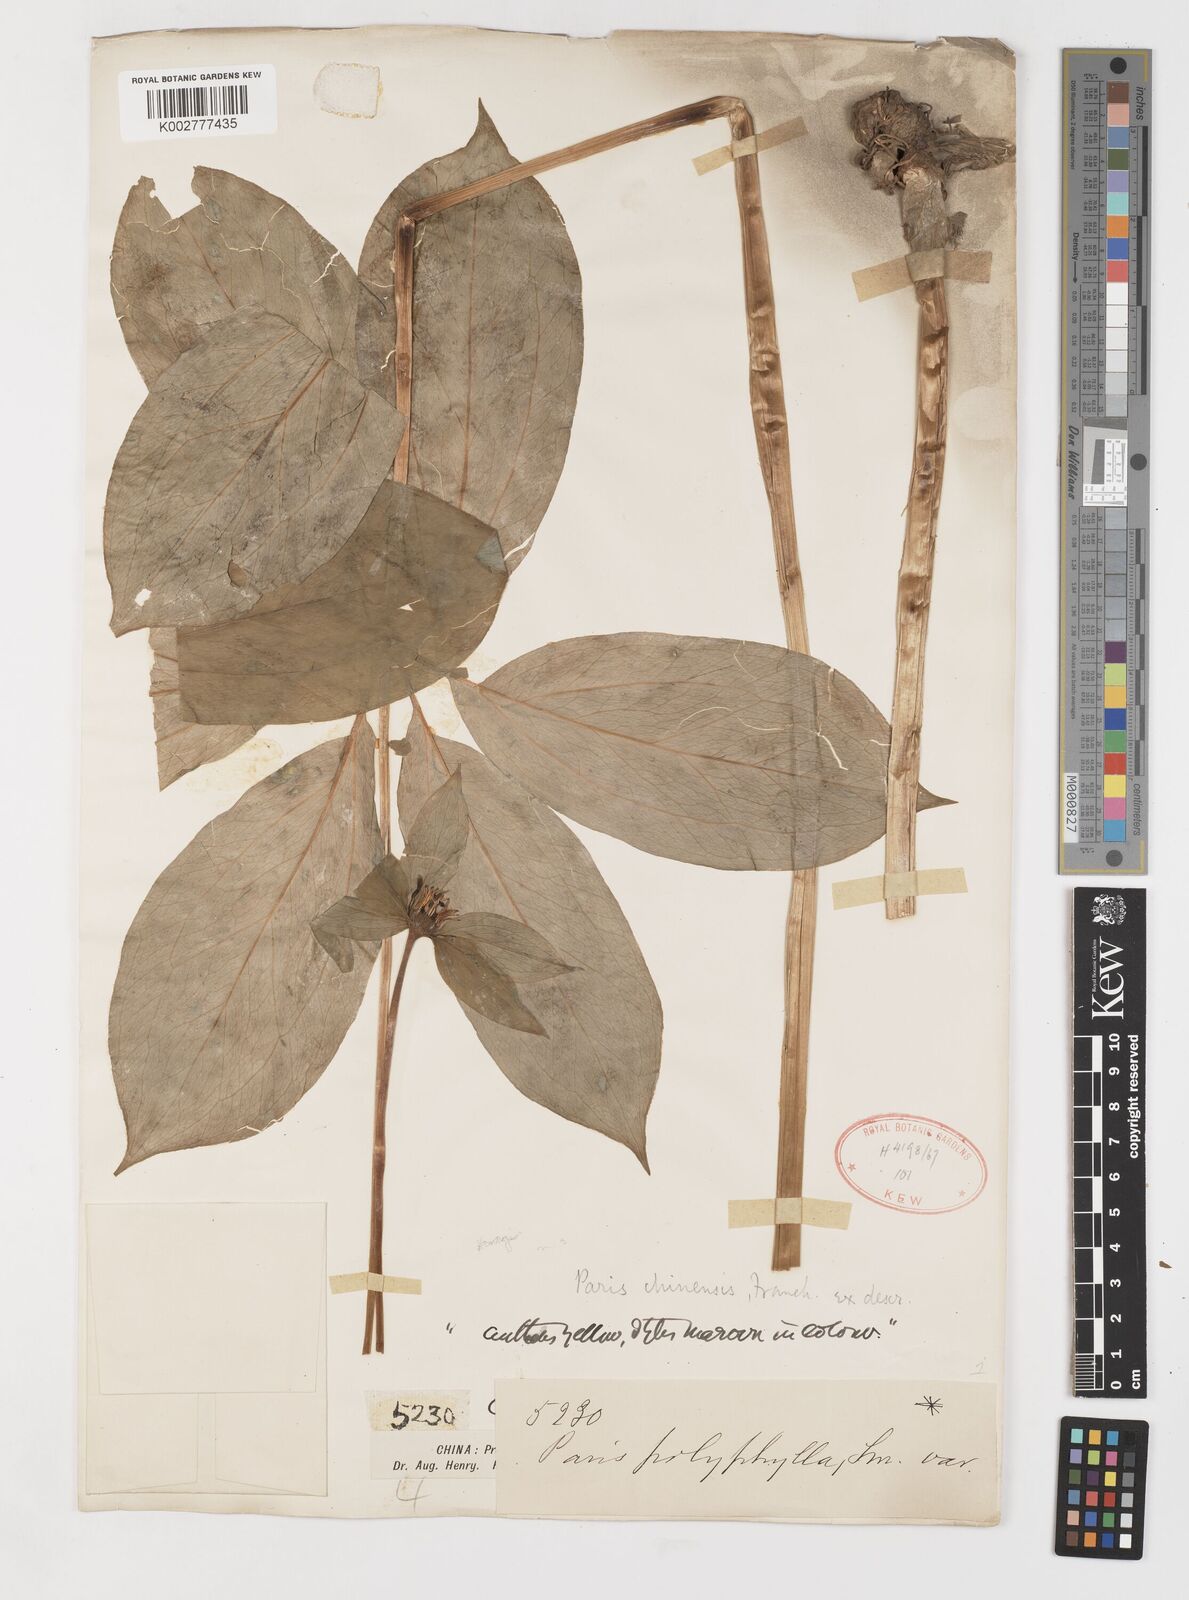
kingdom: Plantae
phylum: Tracheophyta
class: Liliopsida
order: Liliales
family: Melanthiaceae
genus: Paris
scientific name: Paris chinensis
